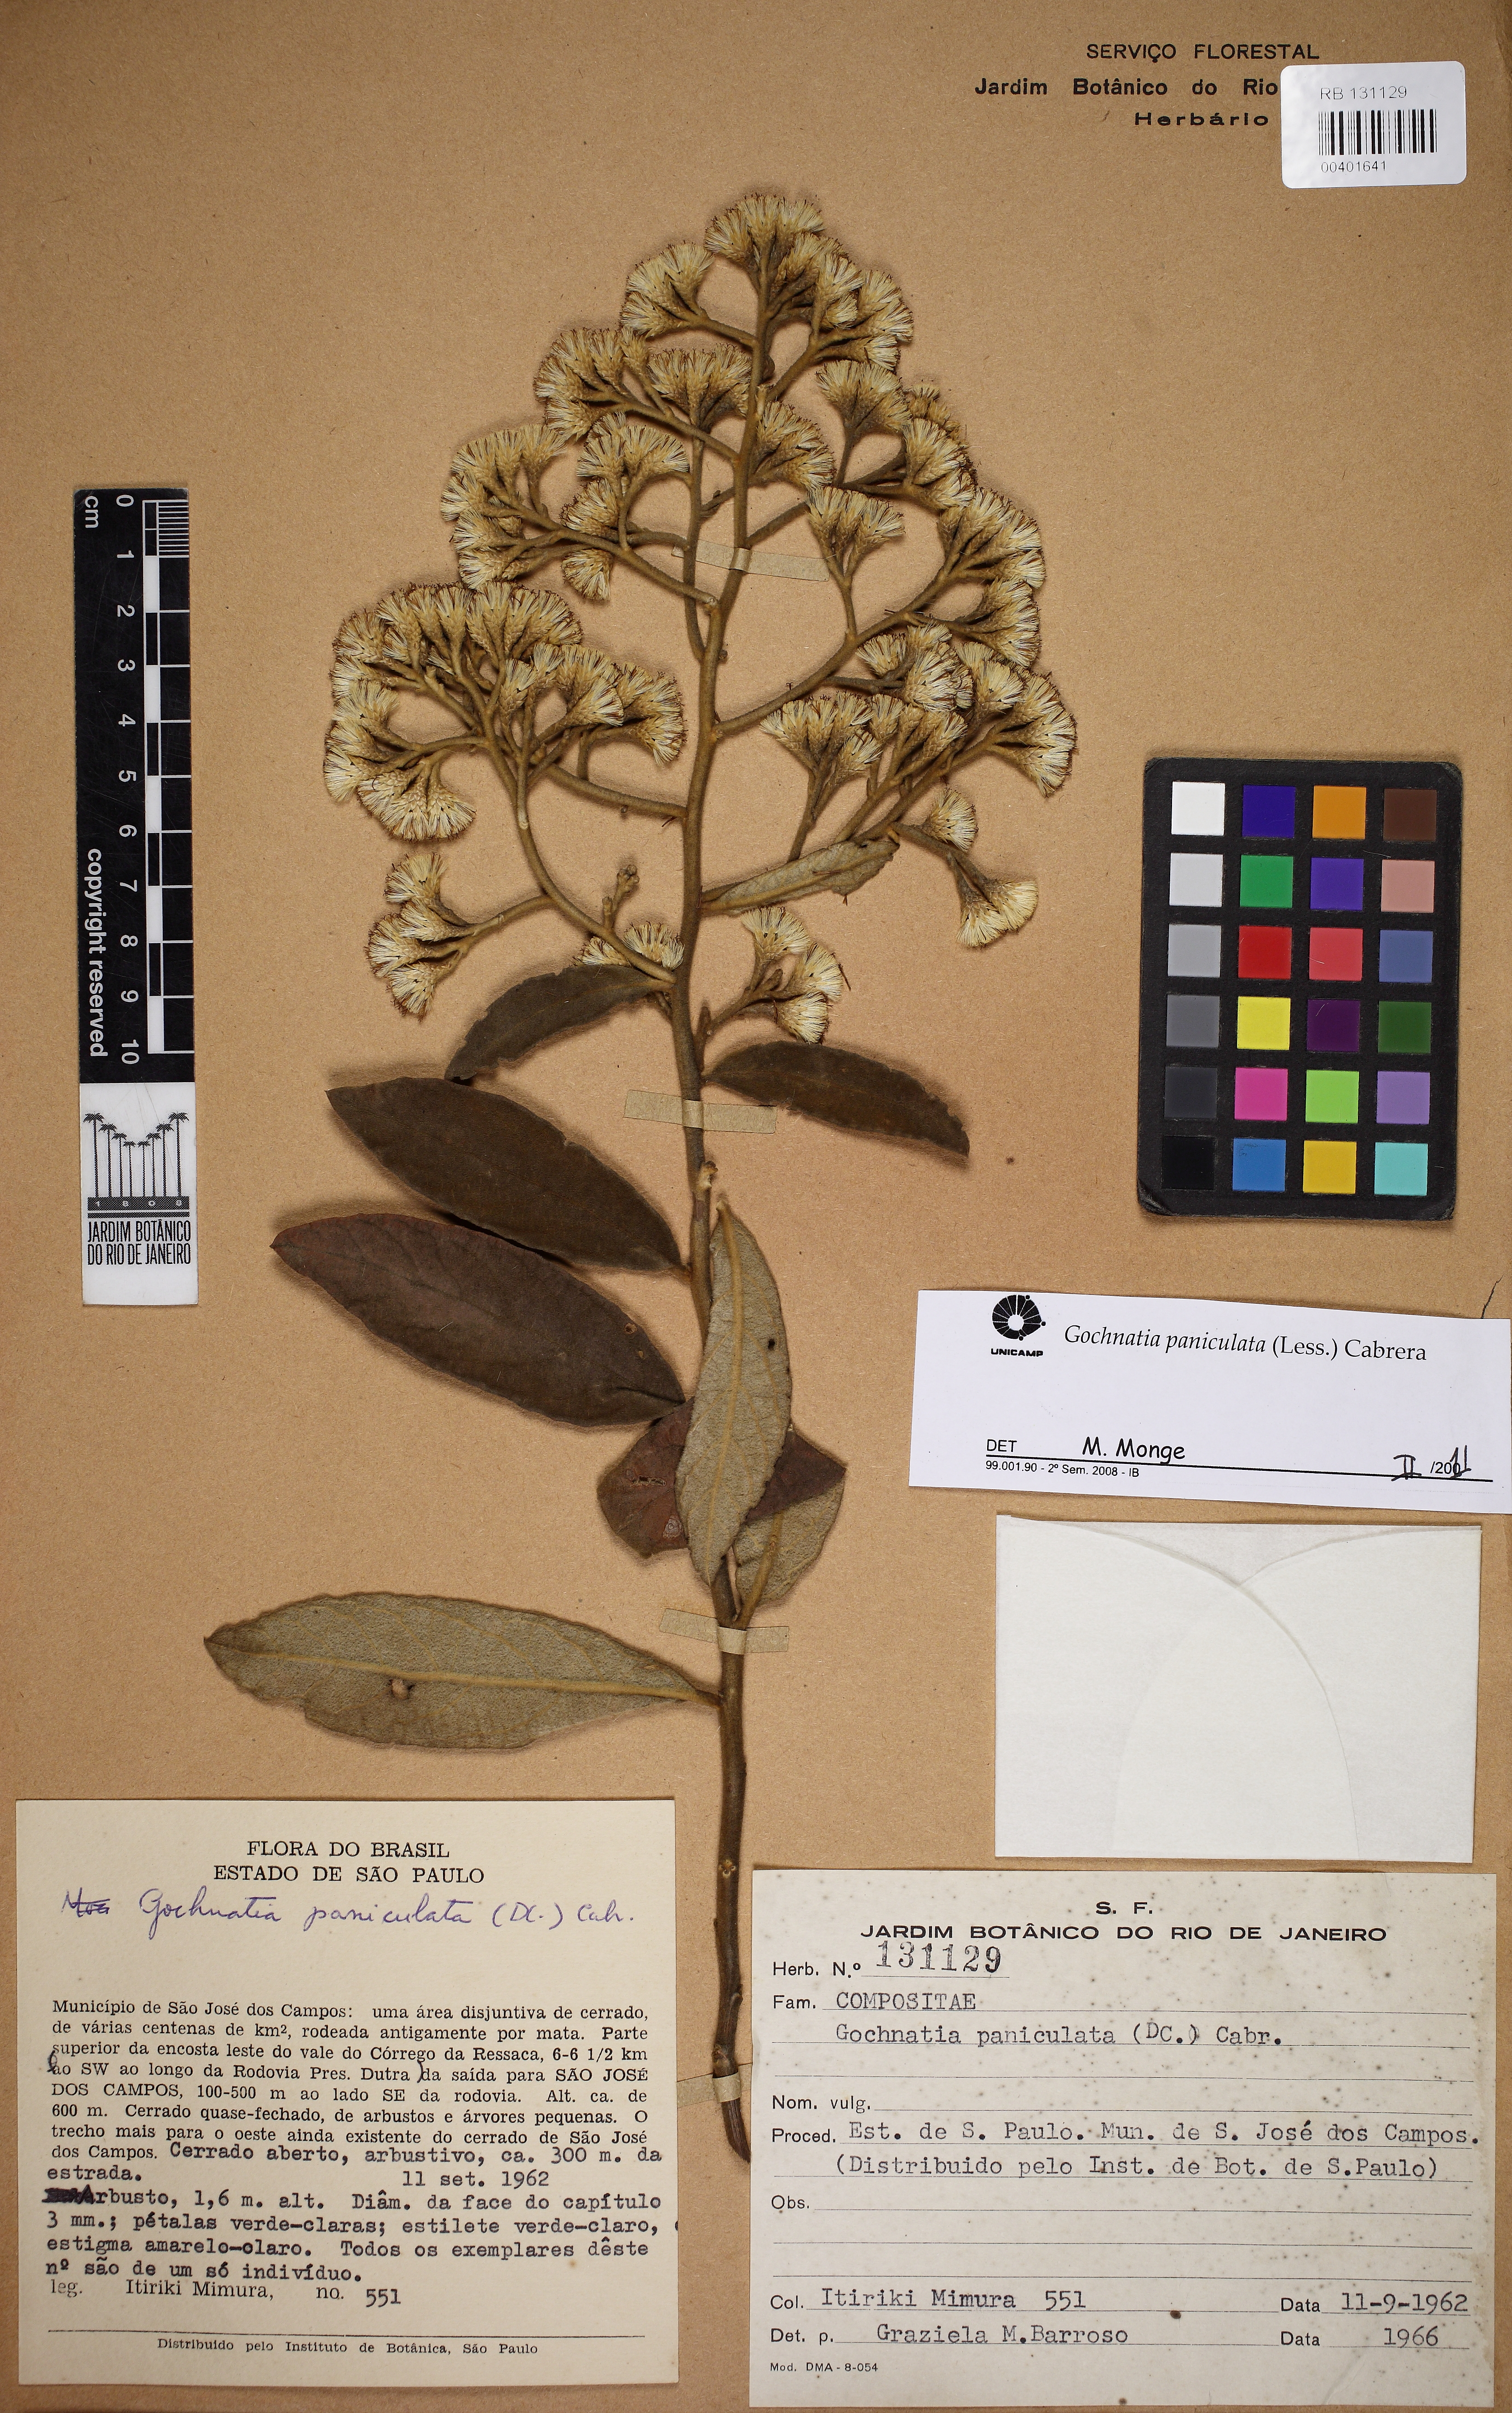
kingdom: Plantae
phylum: Tracheophyta
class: Magnoliopsida
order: Asterales
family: Asteraceae
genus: Moquiniastrum
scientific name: Moquiniastrum paniculatum
